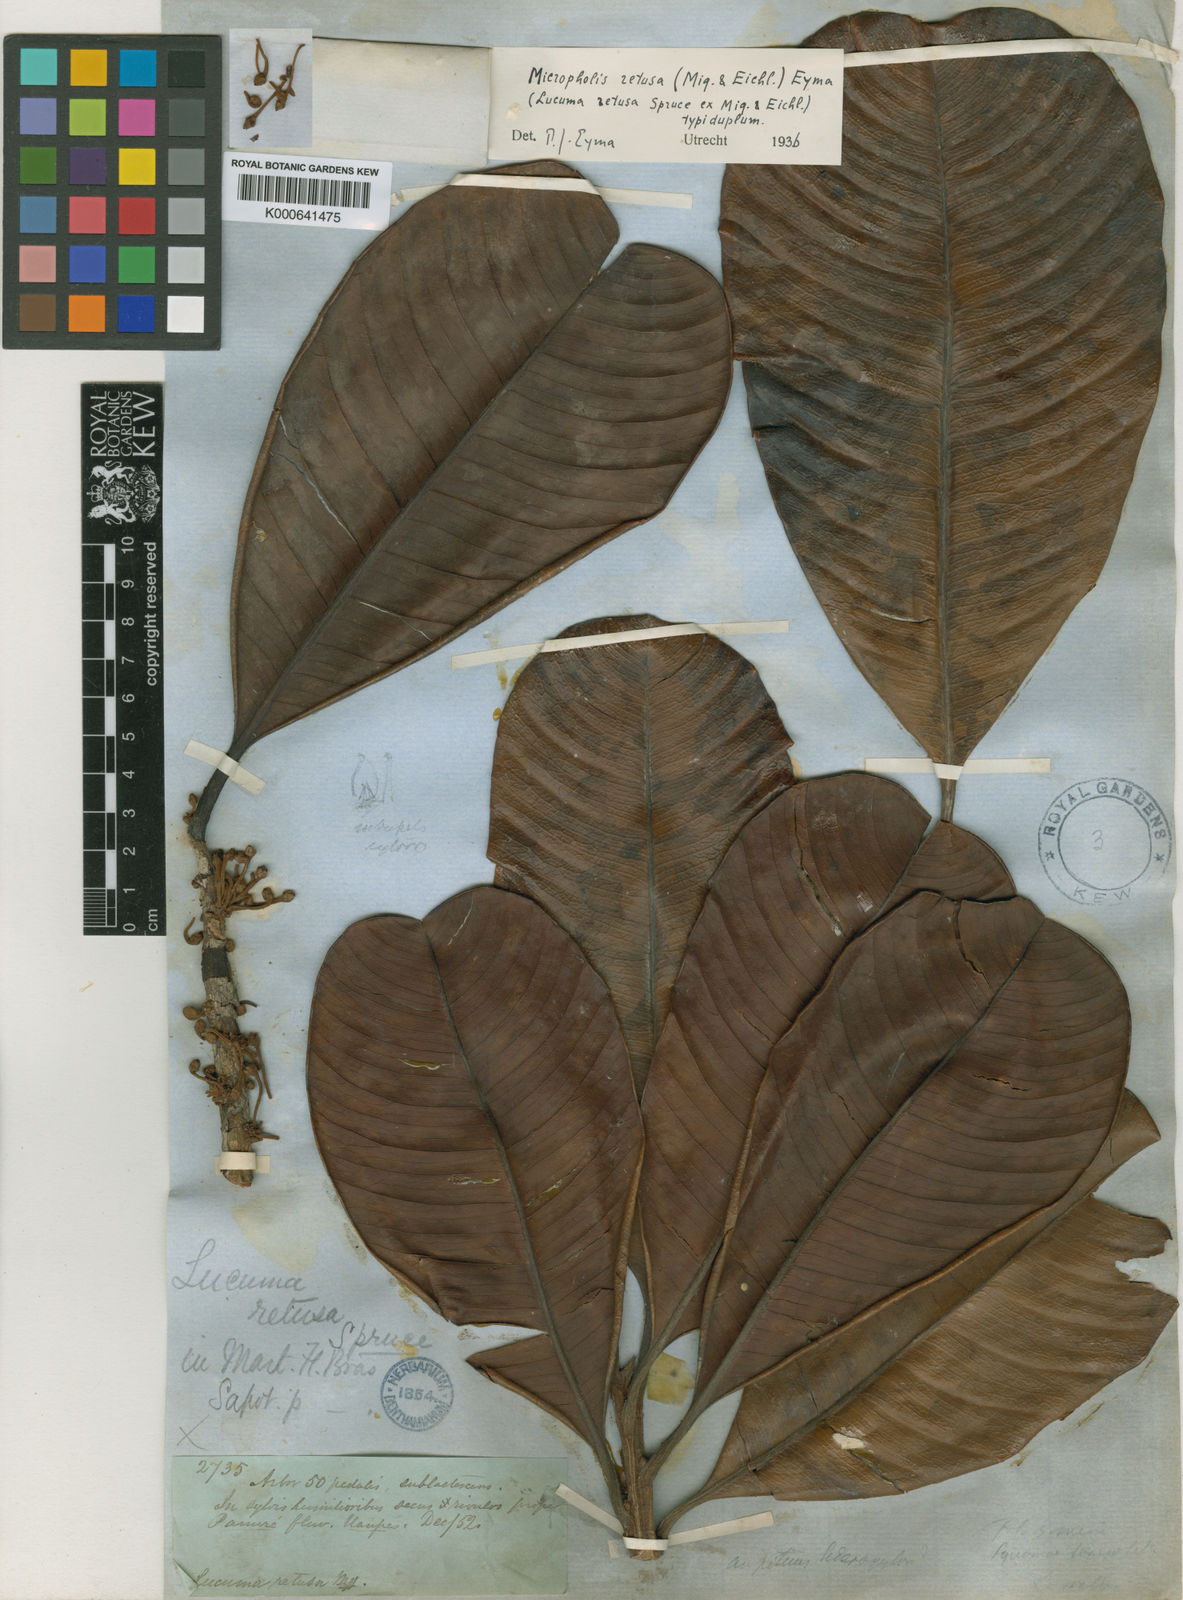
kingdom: Plantae
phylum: Tracheophyta
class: Magnoliopsida
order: Ericales
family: Sapotaceae
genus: Micropholis
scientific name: Micropholis retusa
